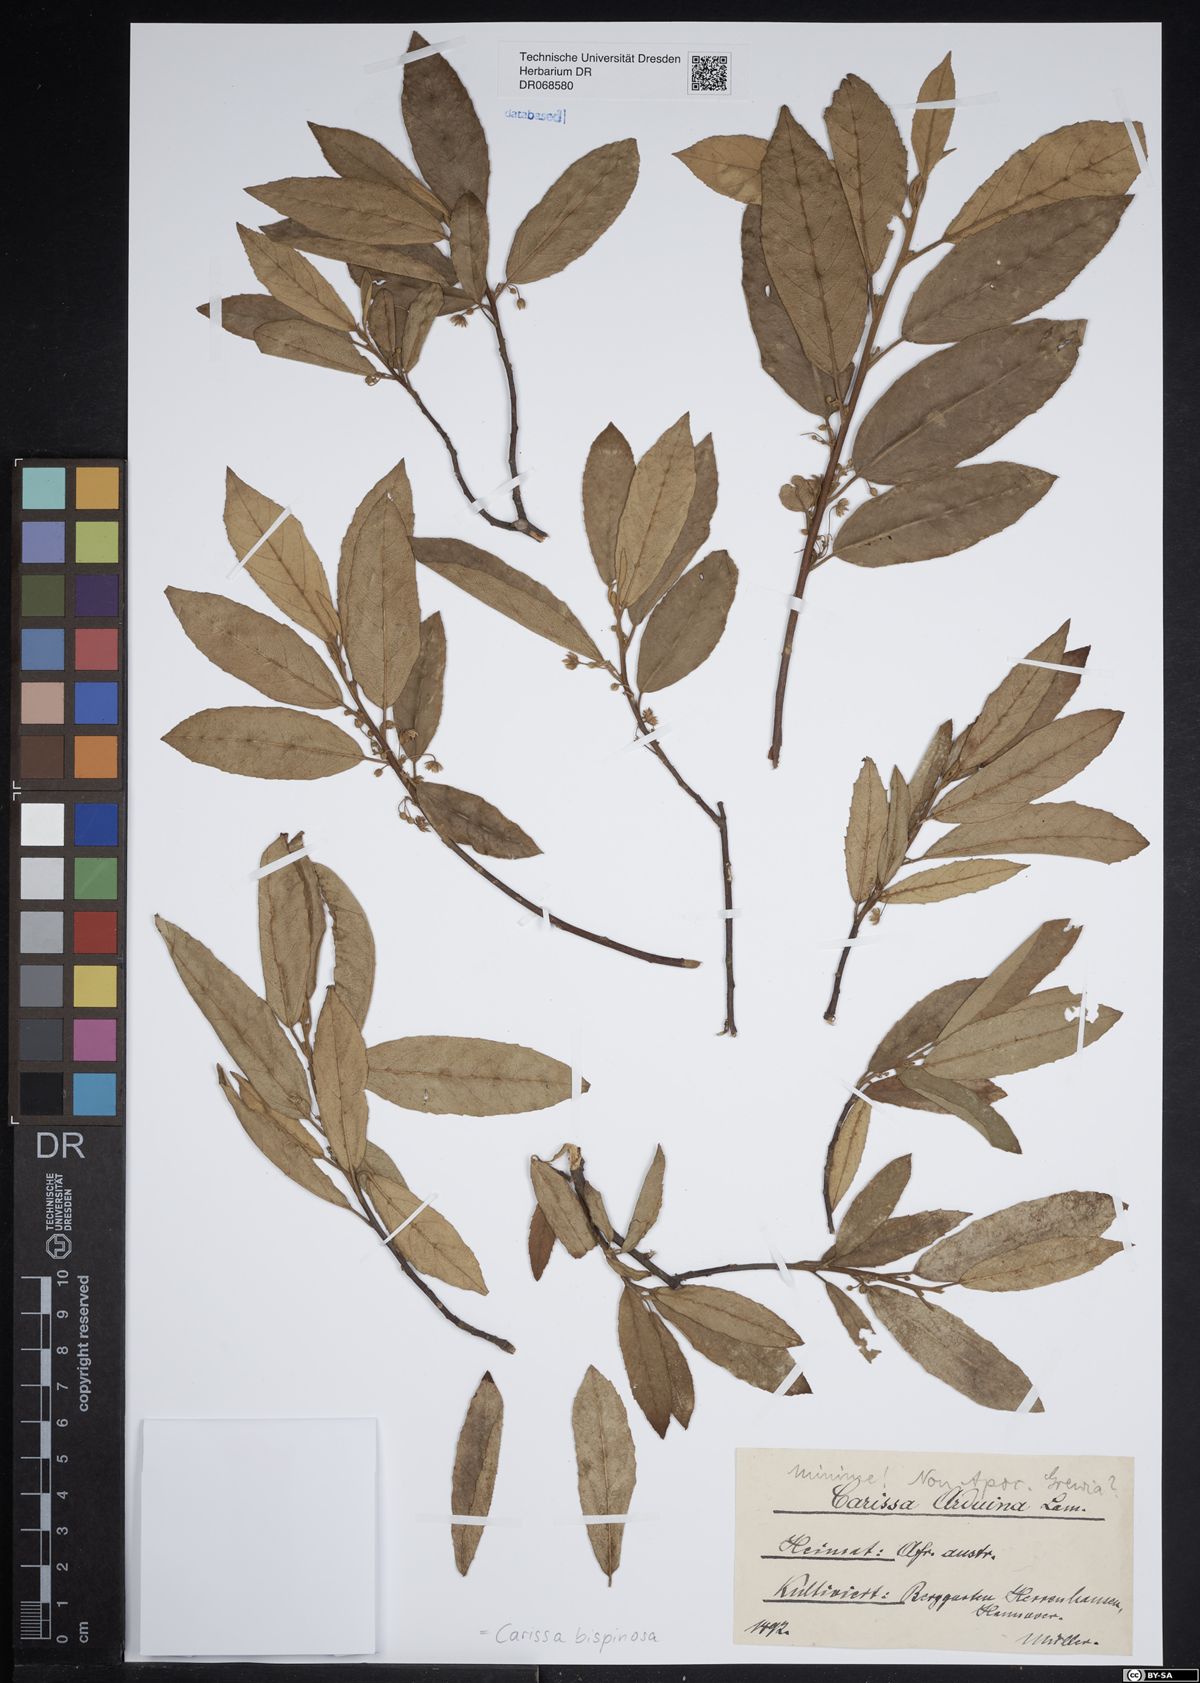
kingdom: Plantae
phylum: Tracheophyta
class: Magnoliopsida
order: Gentianales
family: Apocynaceae
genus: Carissa
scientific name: Carissa bispinosa
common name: Forest num-num
